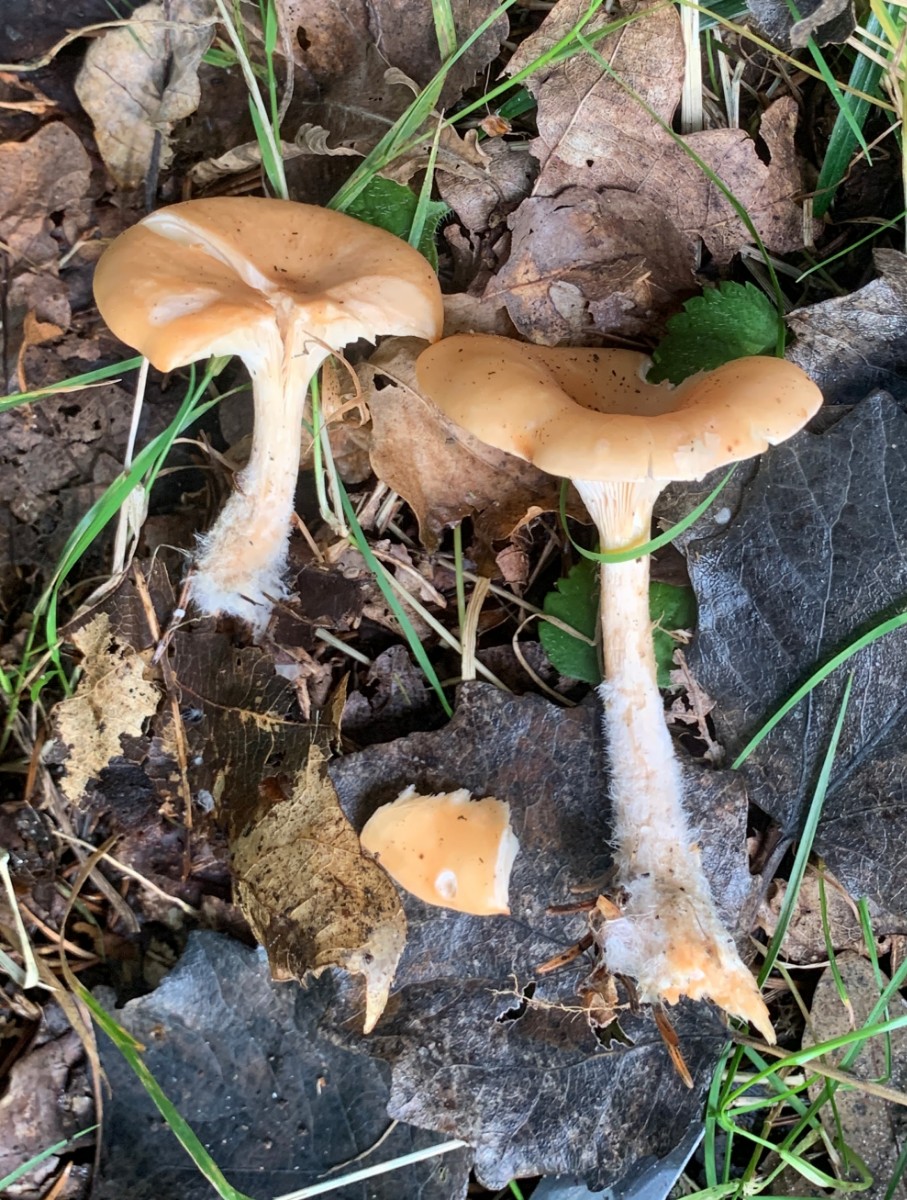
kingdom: Fungi
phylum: Basidiomycota
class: Agaricomycetes
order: Agaricales
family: Tricholomataceae
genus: Paralepista
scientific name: Paralepista flaccida
